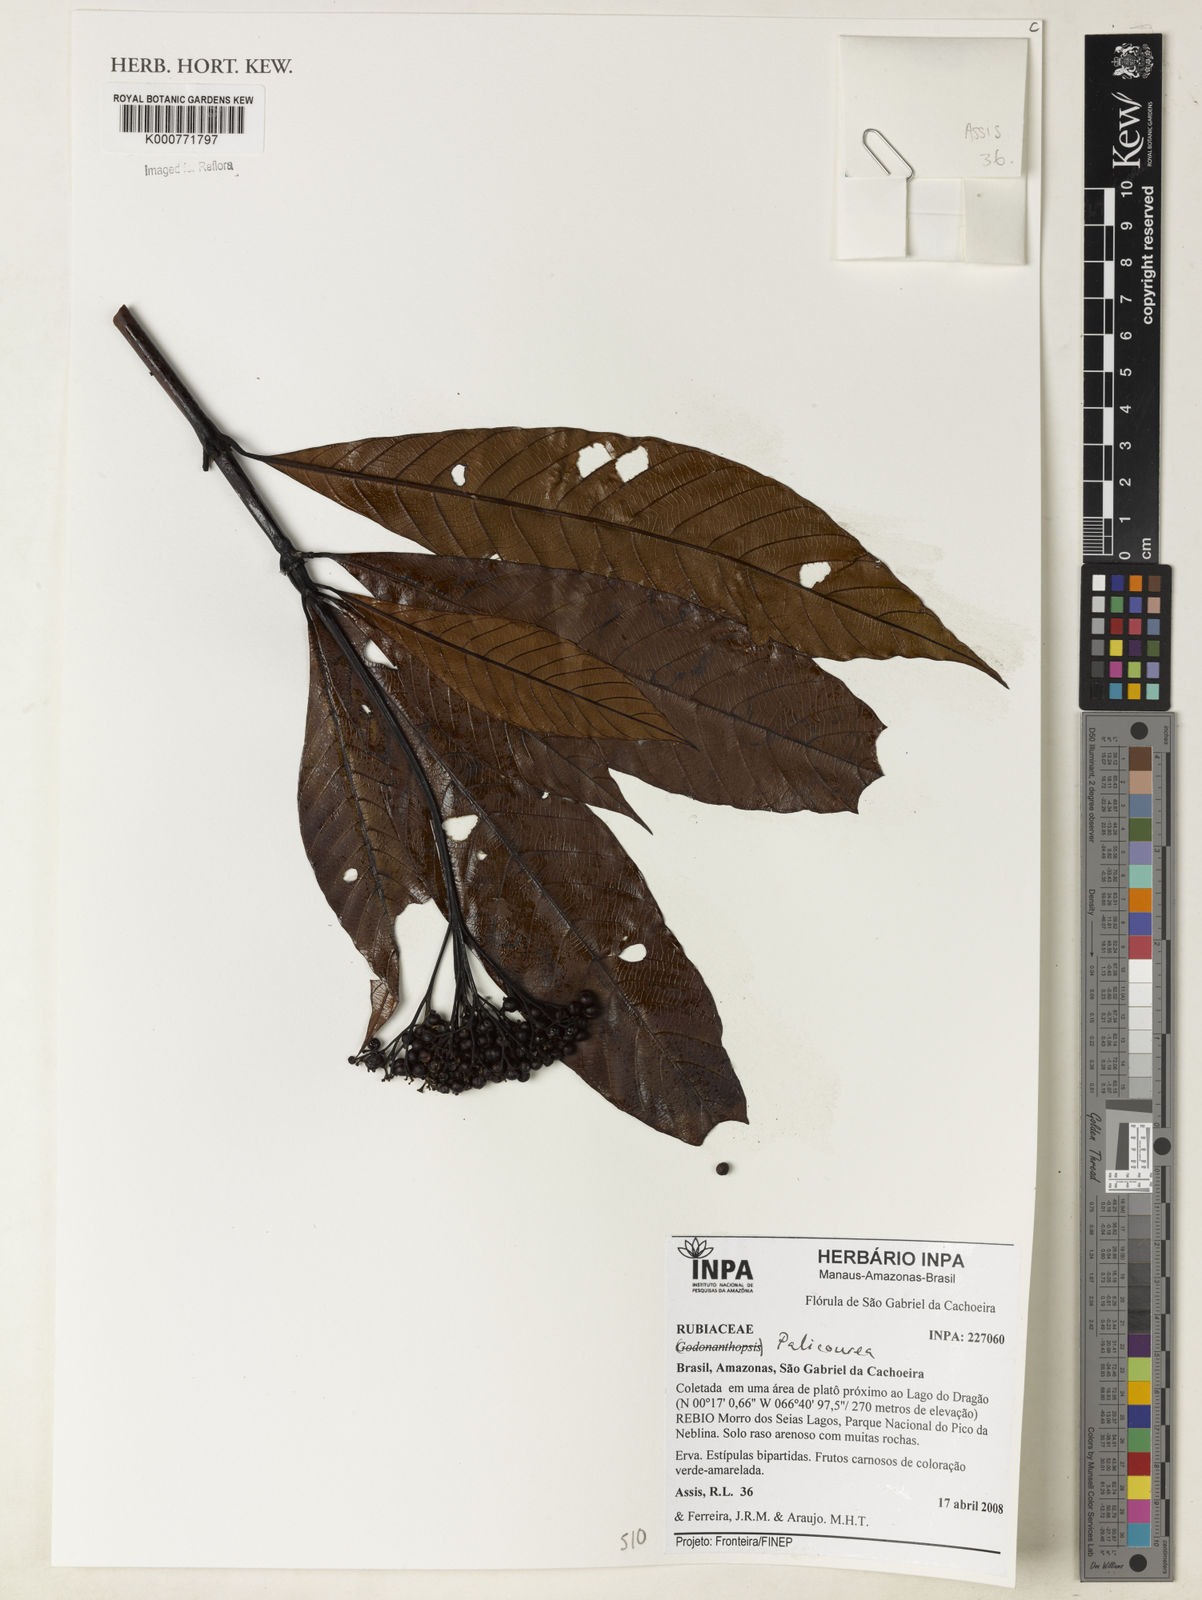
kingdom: Plantae
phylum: Tracheophyta
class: Magnoliopsida
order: Gentianales
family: Rubiaceae
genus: Palicourea
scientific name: Palicourea
